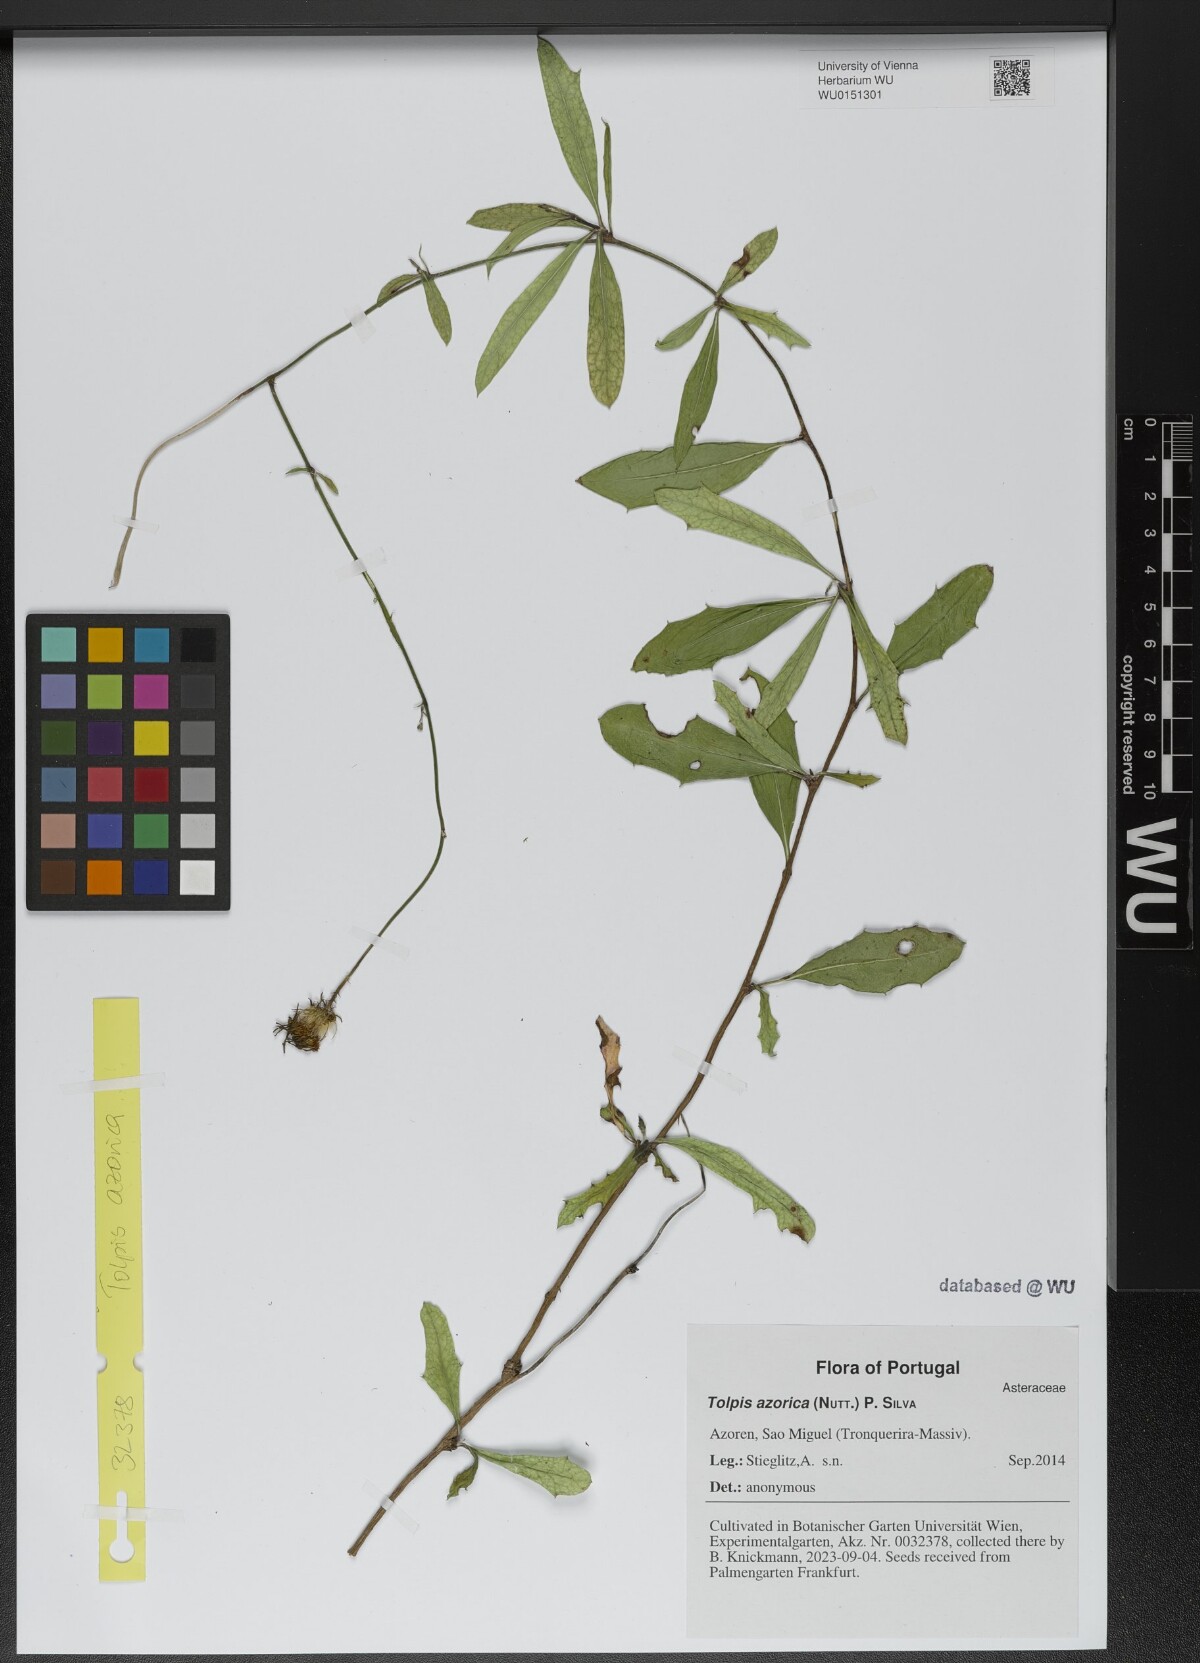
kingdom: Plantae
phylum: Tracheophyta
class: Magnoliopsida
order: Asterales
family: Asteraceae
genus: Tolpis
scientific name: Tolpis azorica
